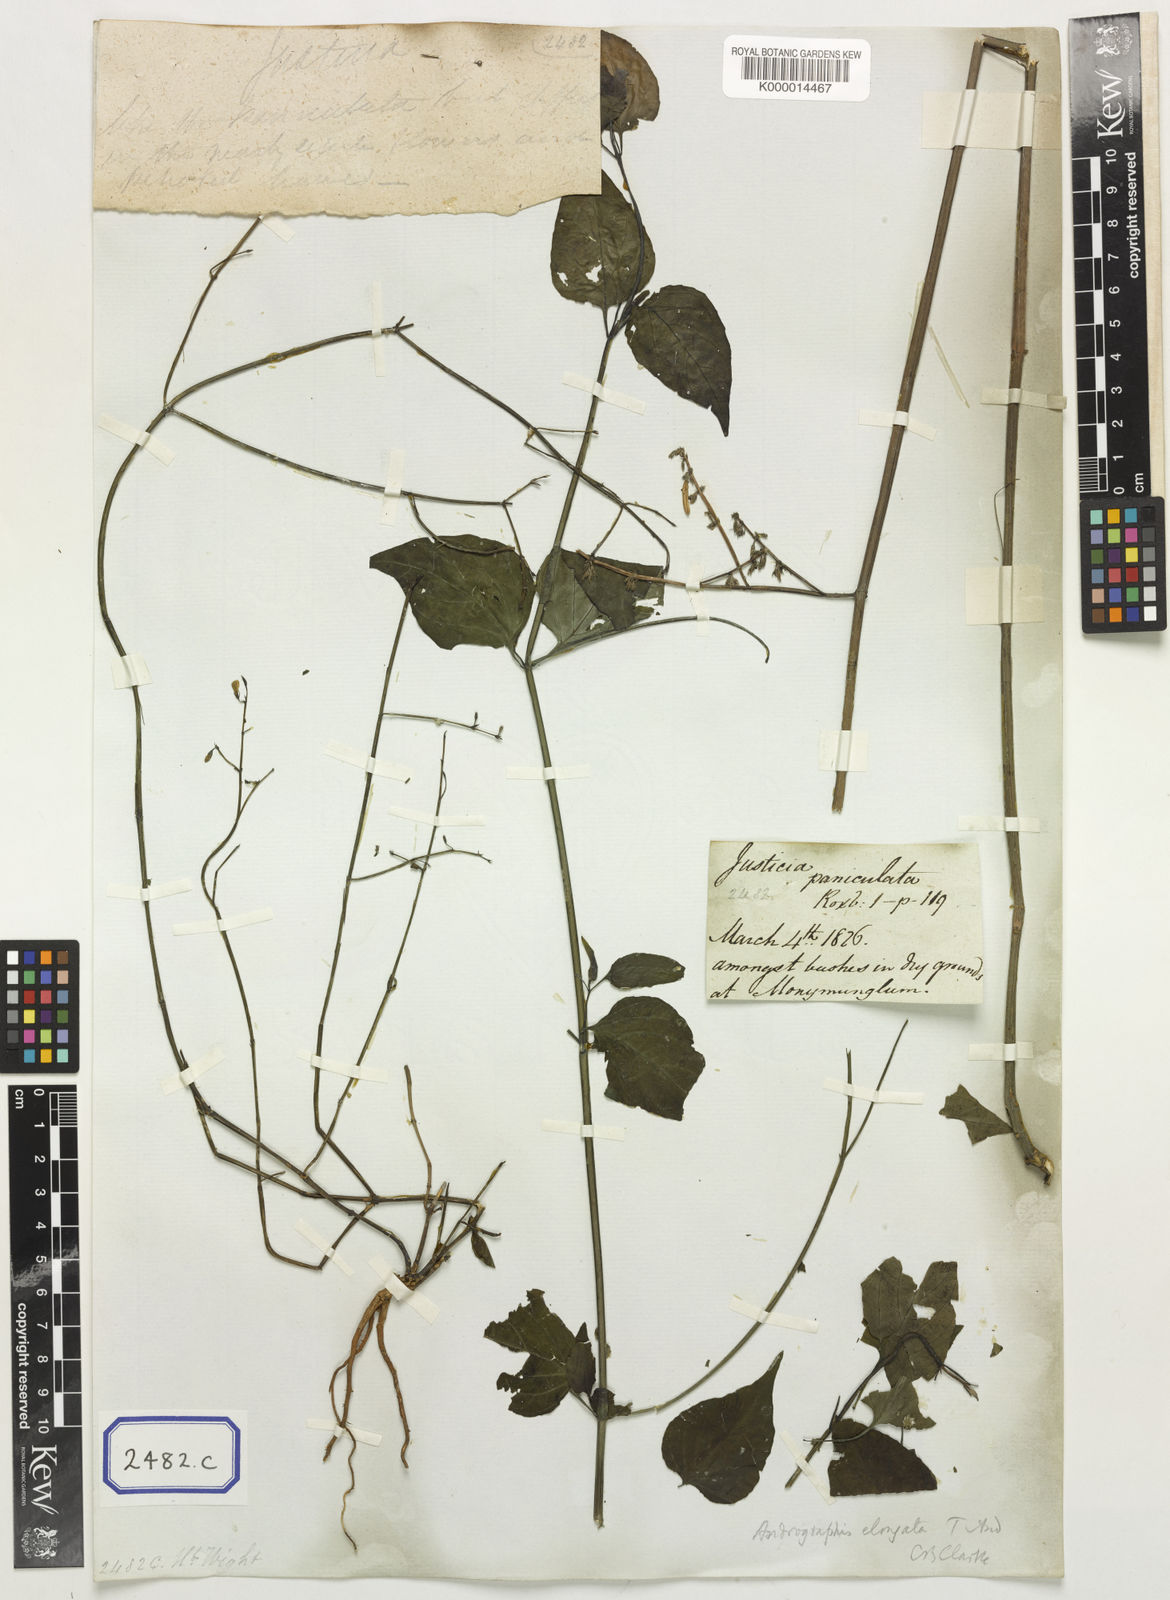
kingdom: Plantae
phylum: Tracheophyta
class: Magnoliopsida
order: Lamiales
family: Acanthaceae
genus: Andrographis
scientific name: Andrographis elongata
